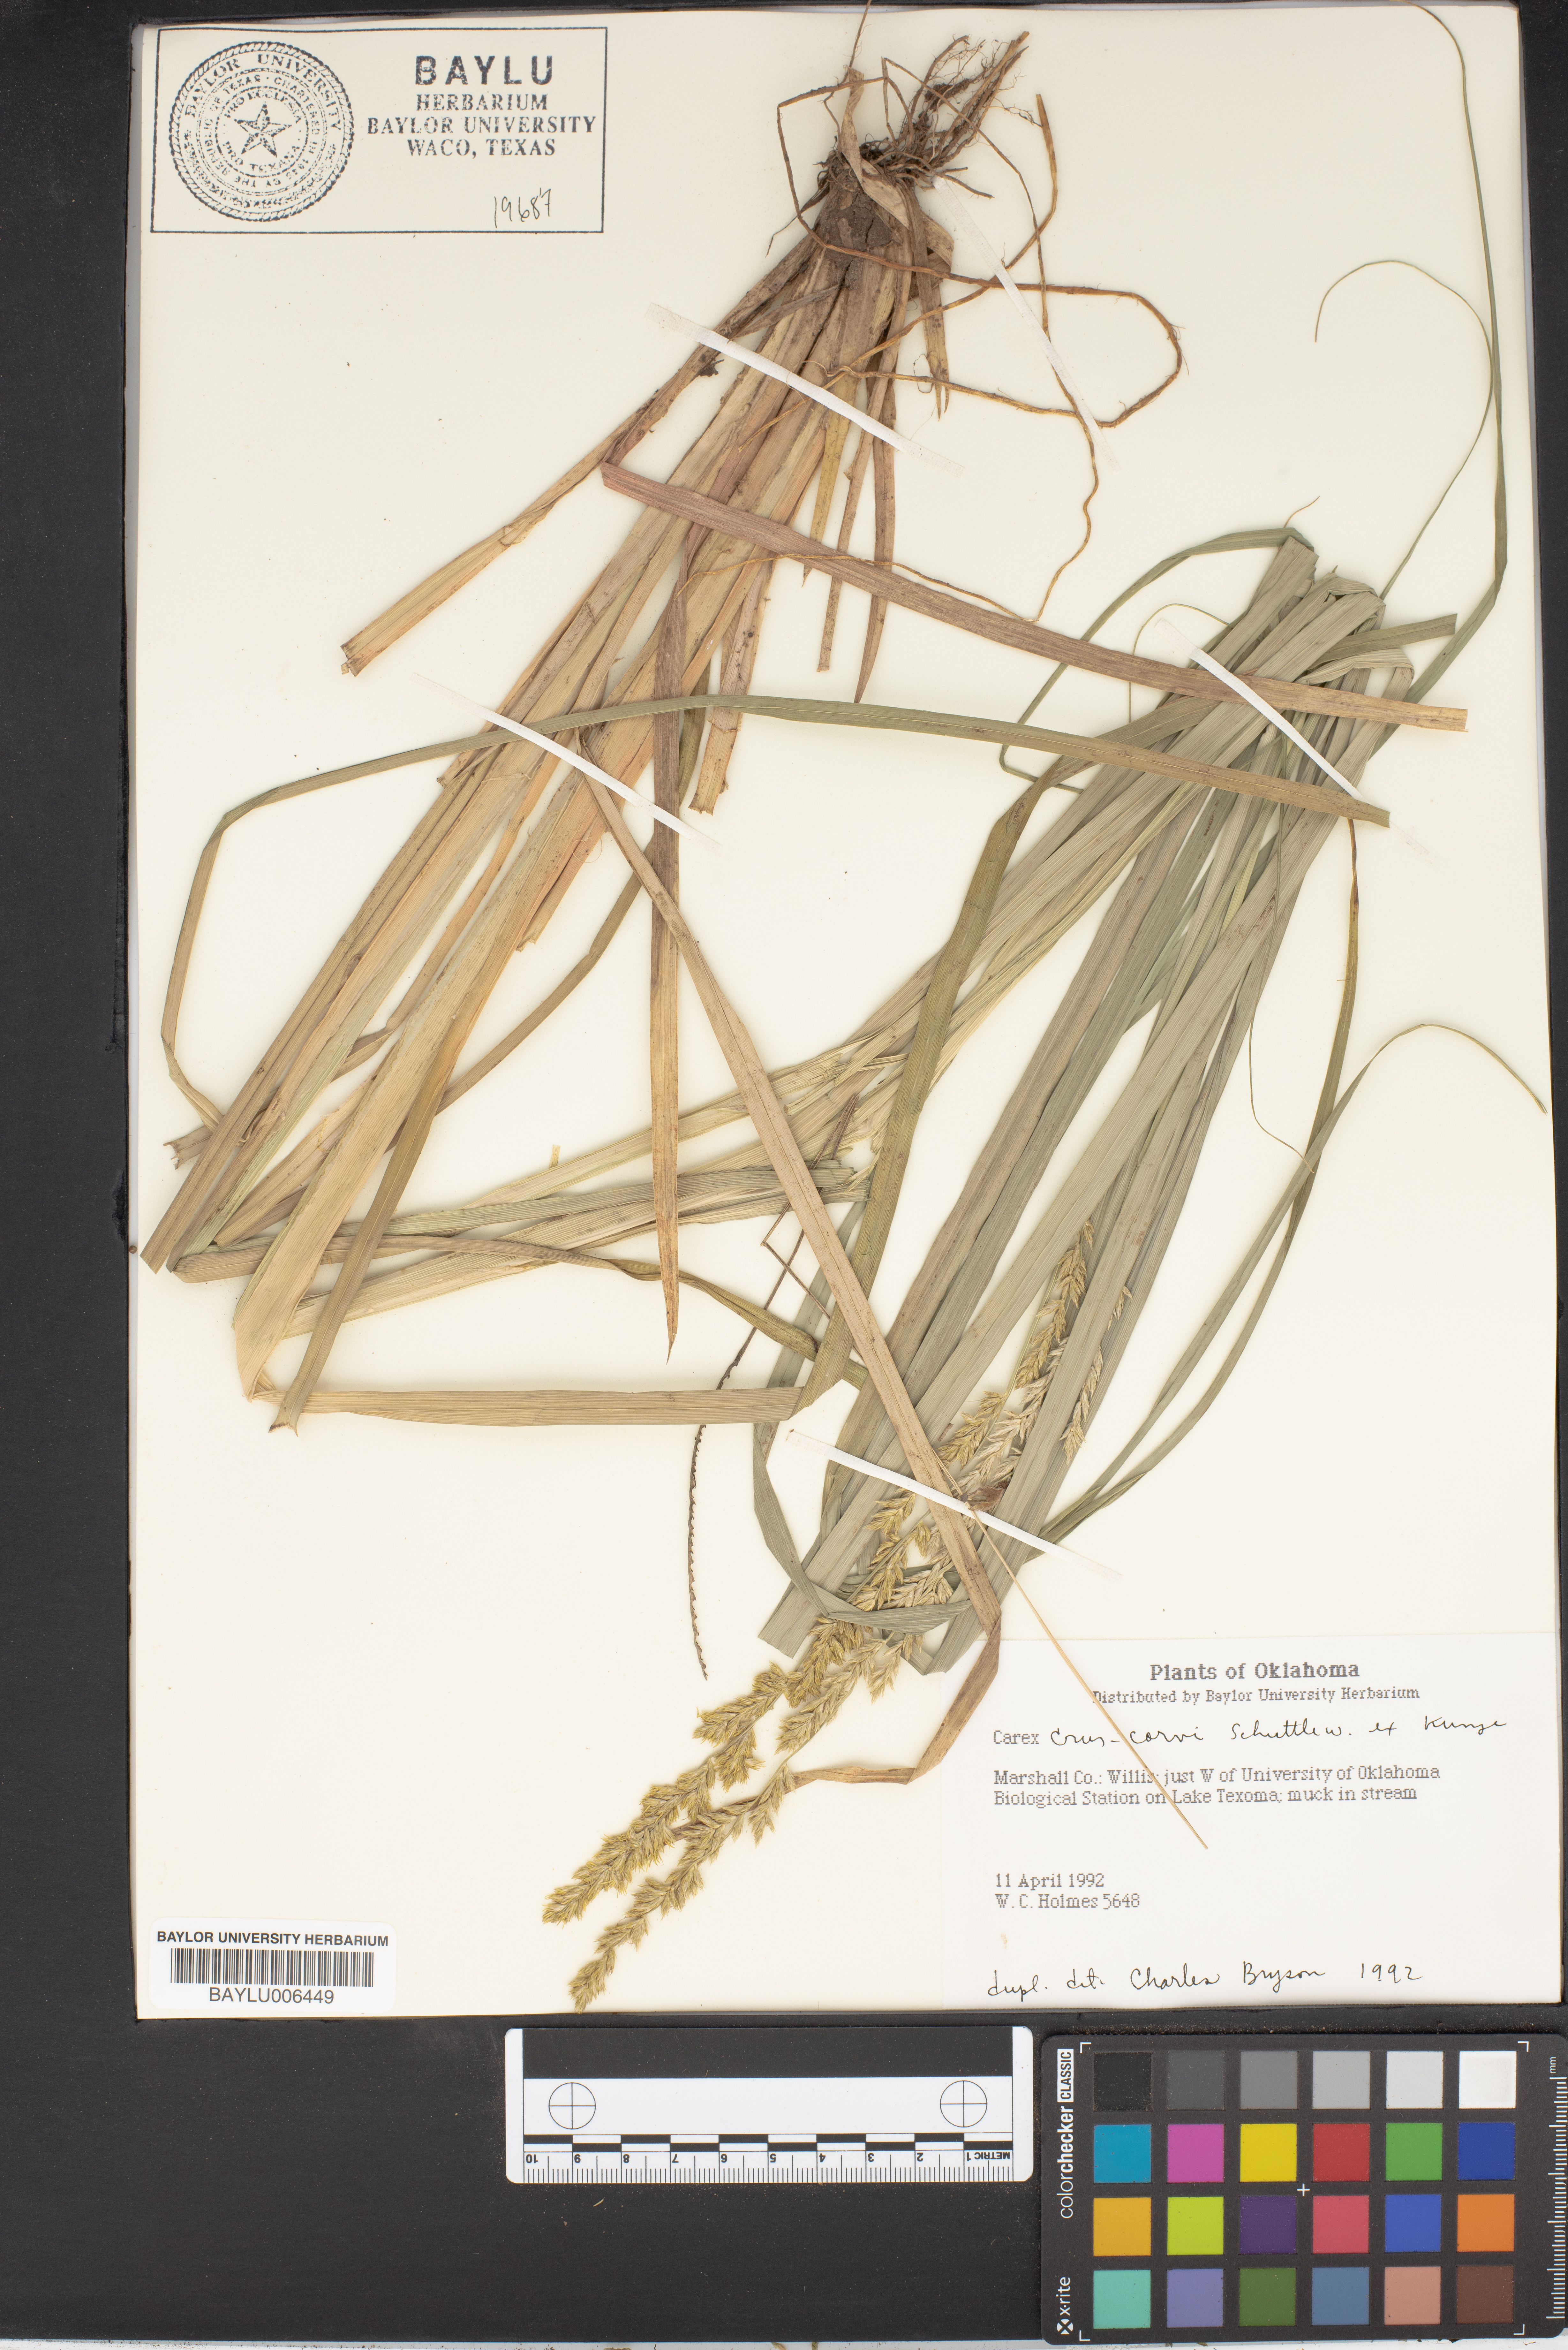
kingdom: Plantae
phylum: Tracheophyta
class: Liliopsida
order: Poales
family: Cyperaceae
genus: Carex
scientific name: Carex crus-corvi
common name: Crow-spur sedge
